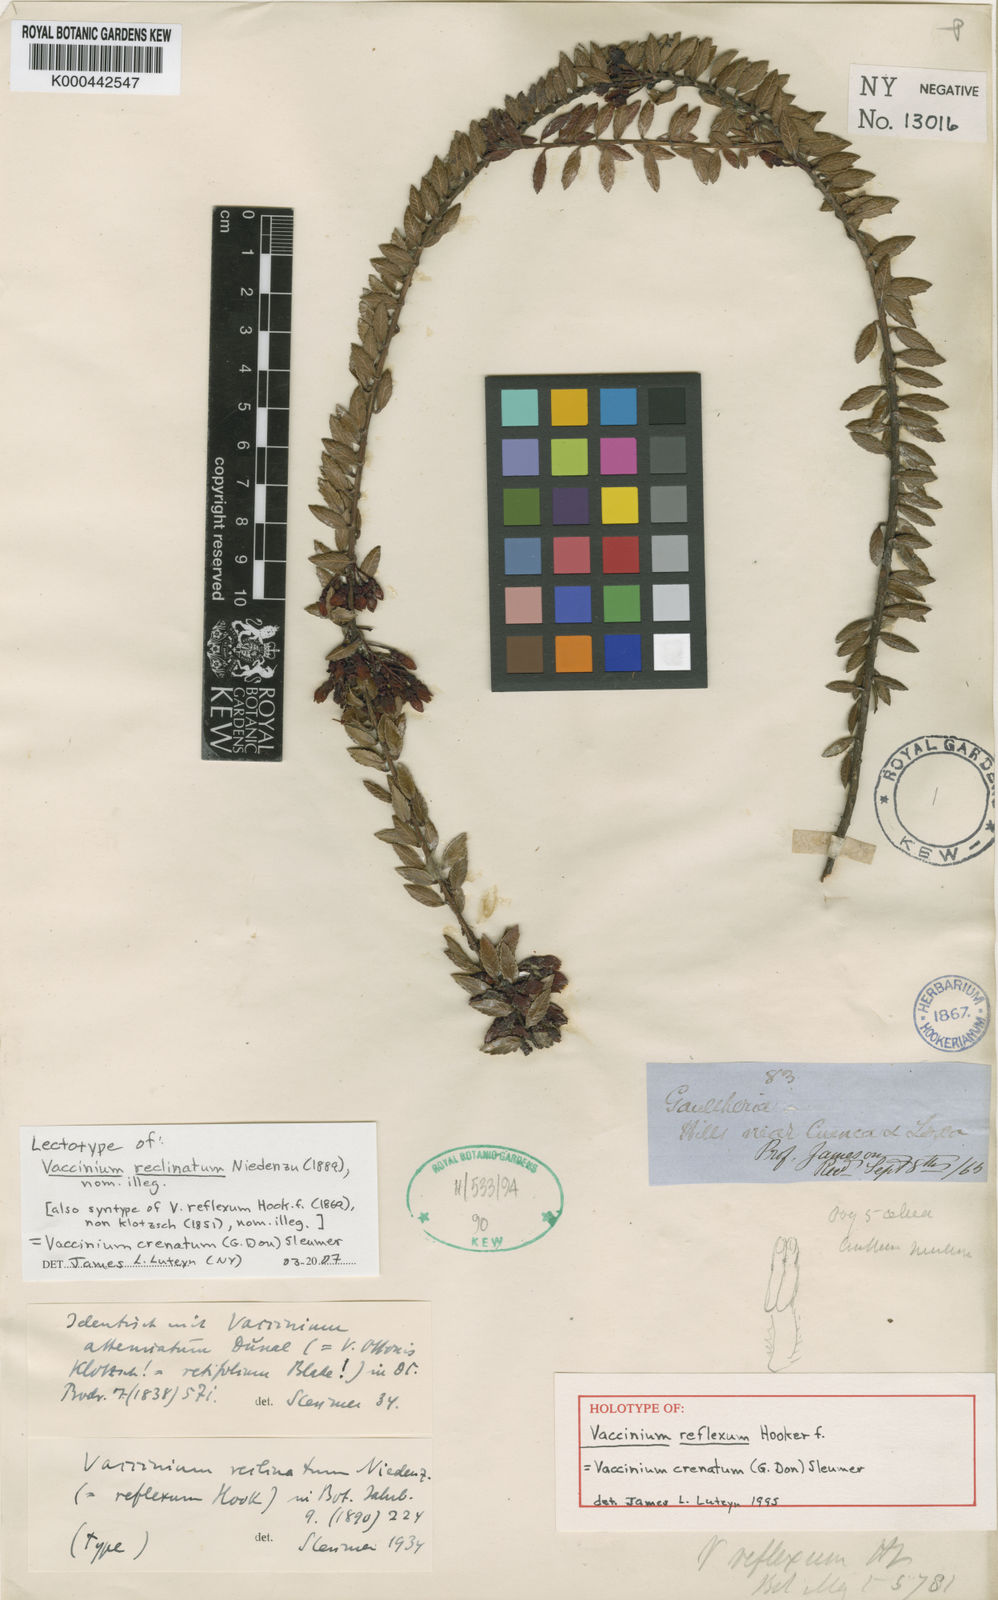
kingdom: Plantae
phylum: Tracheophyta
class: Magnoliopsida
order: Ericales
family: Ericaceae
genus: Vaccinium
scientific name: Vaccinium crenatum
